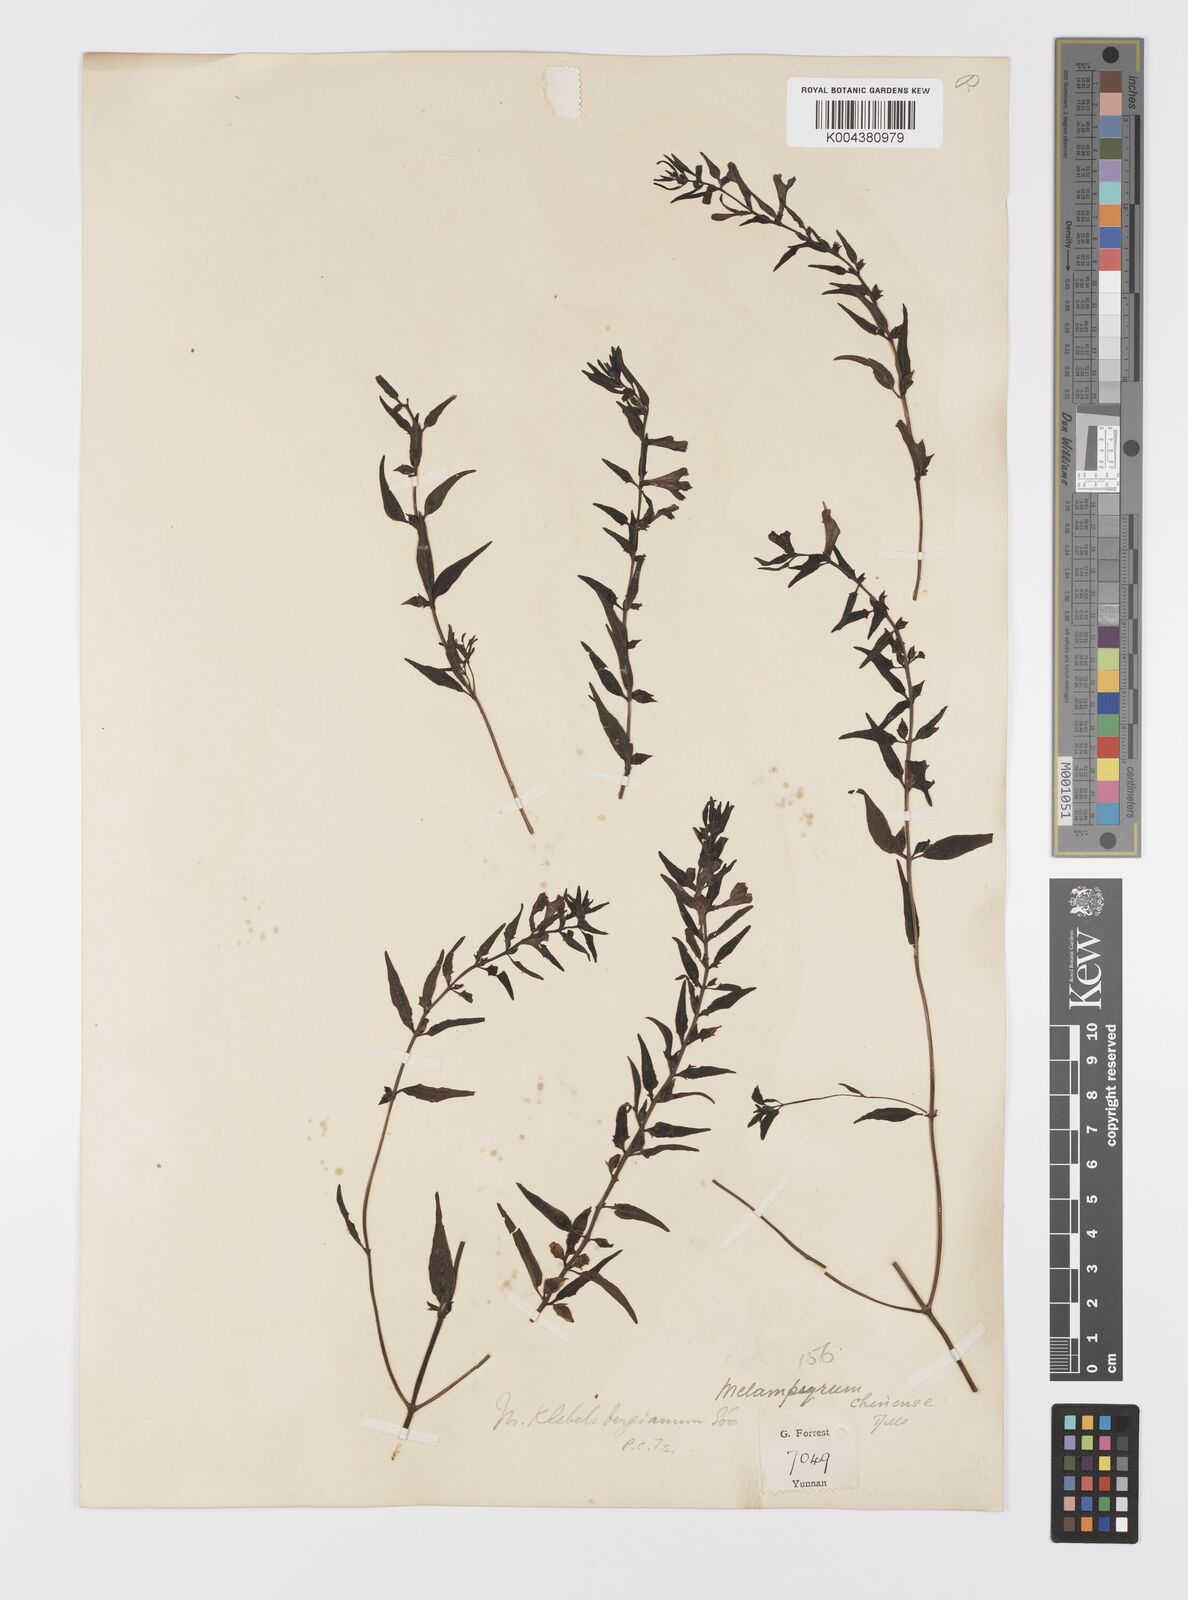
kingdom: Plantae
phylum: Tracheophyta
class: Magnoliopsida
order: Lamiales
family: Orobanchaceae
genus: Melampyrum
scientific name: Melampyrum chinense
